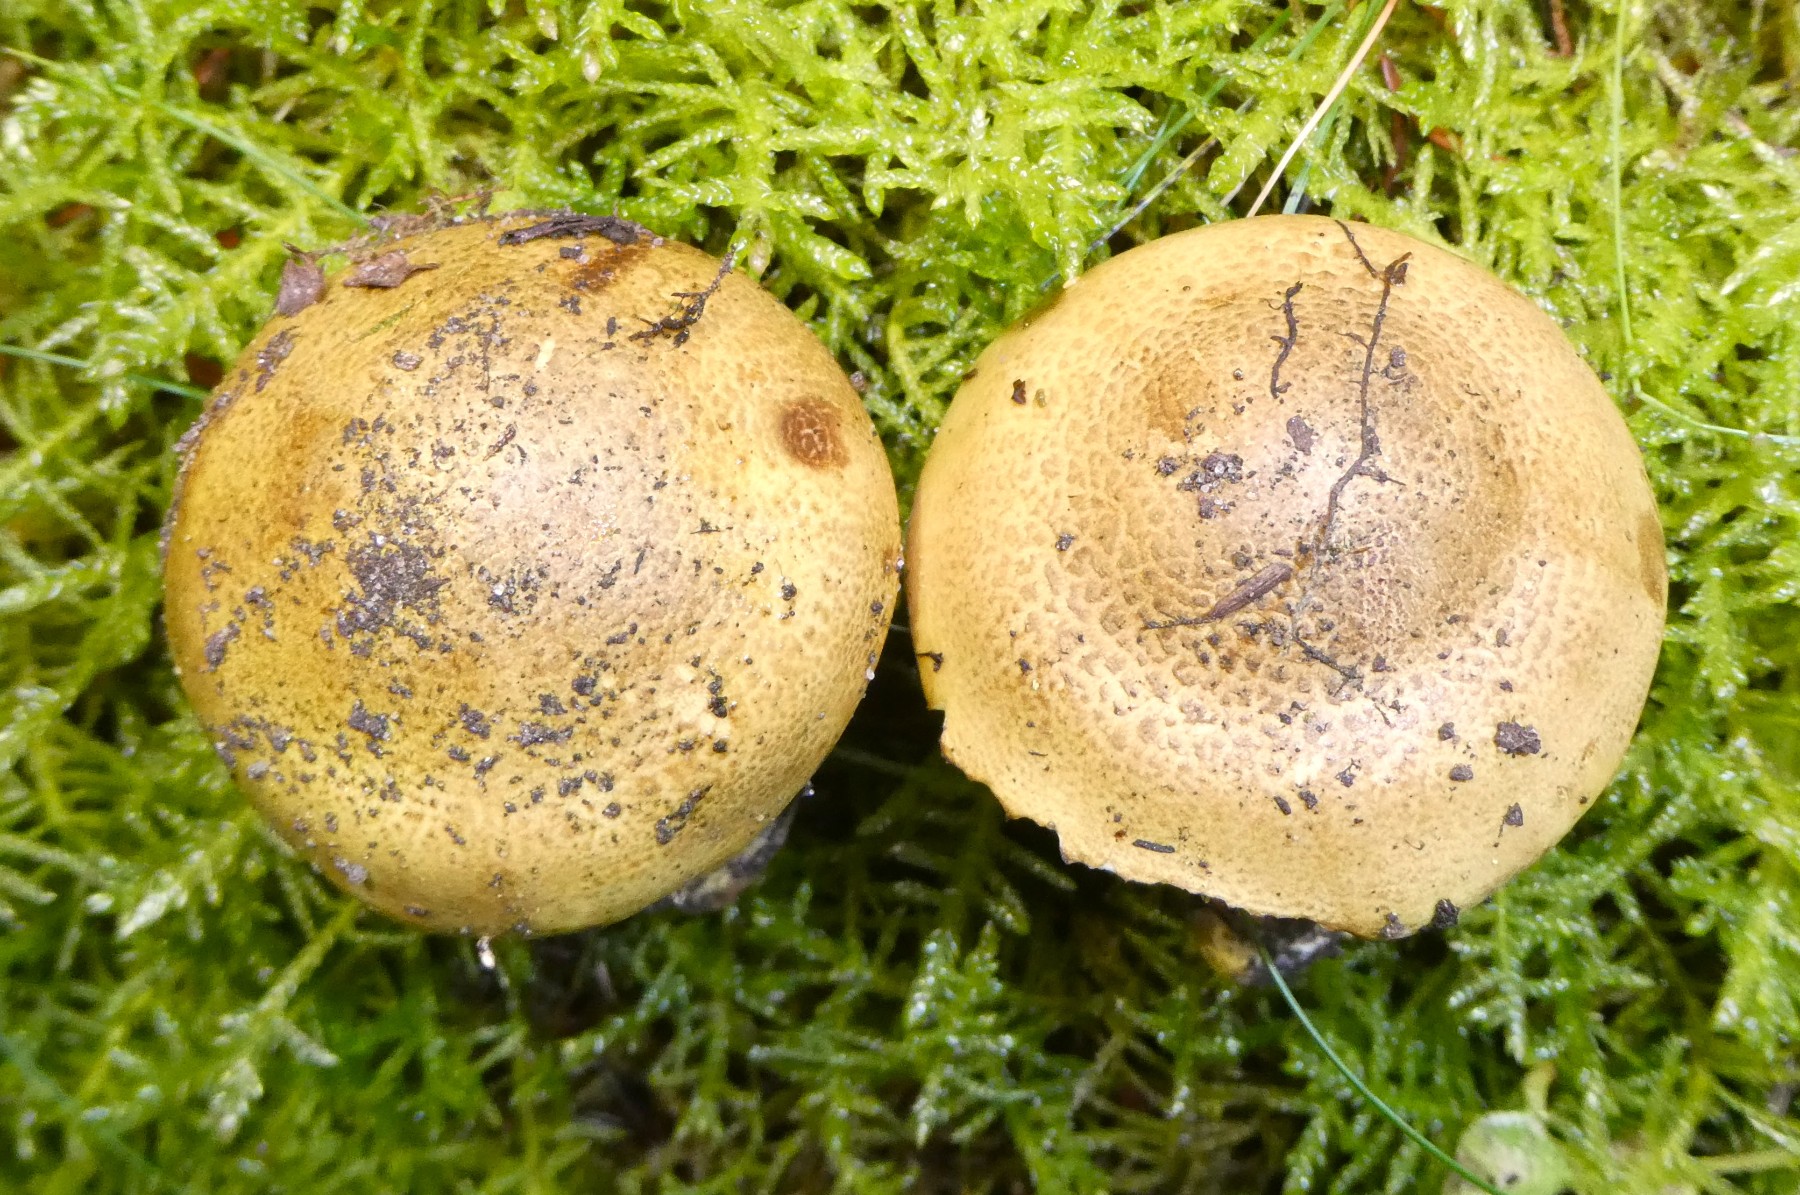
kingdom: Fungi
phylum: Basidiomycota
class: Agaricomycetes
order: Agaricales
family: Tricholomataceae
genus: Tricholoma
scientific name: Tricholoma frondosae
